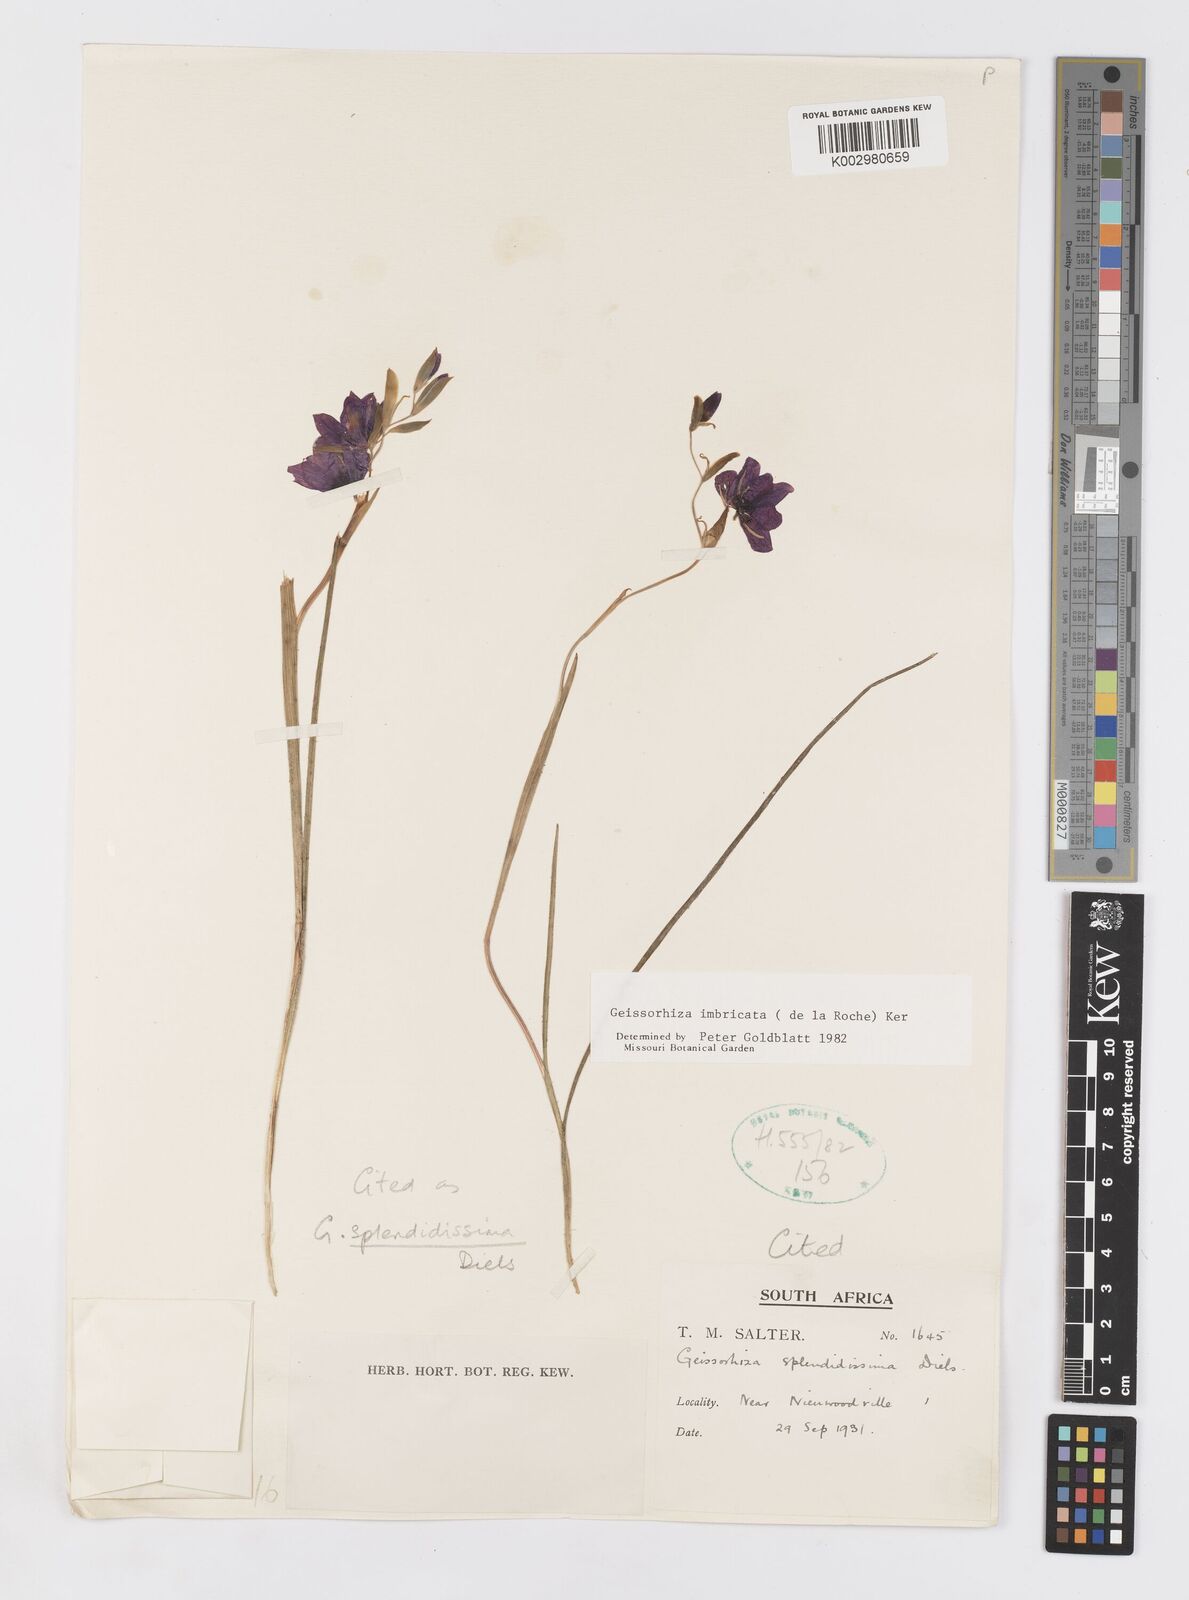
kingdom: Plantae
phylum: Tracheophyta
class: Liliopsida
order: Asparagales
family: Iridaceae
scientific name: Iridaceae
